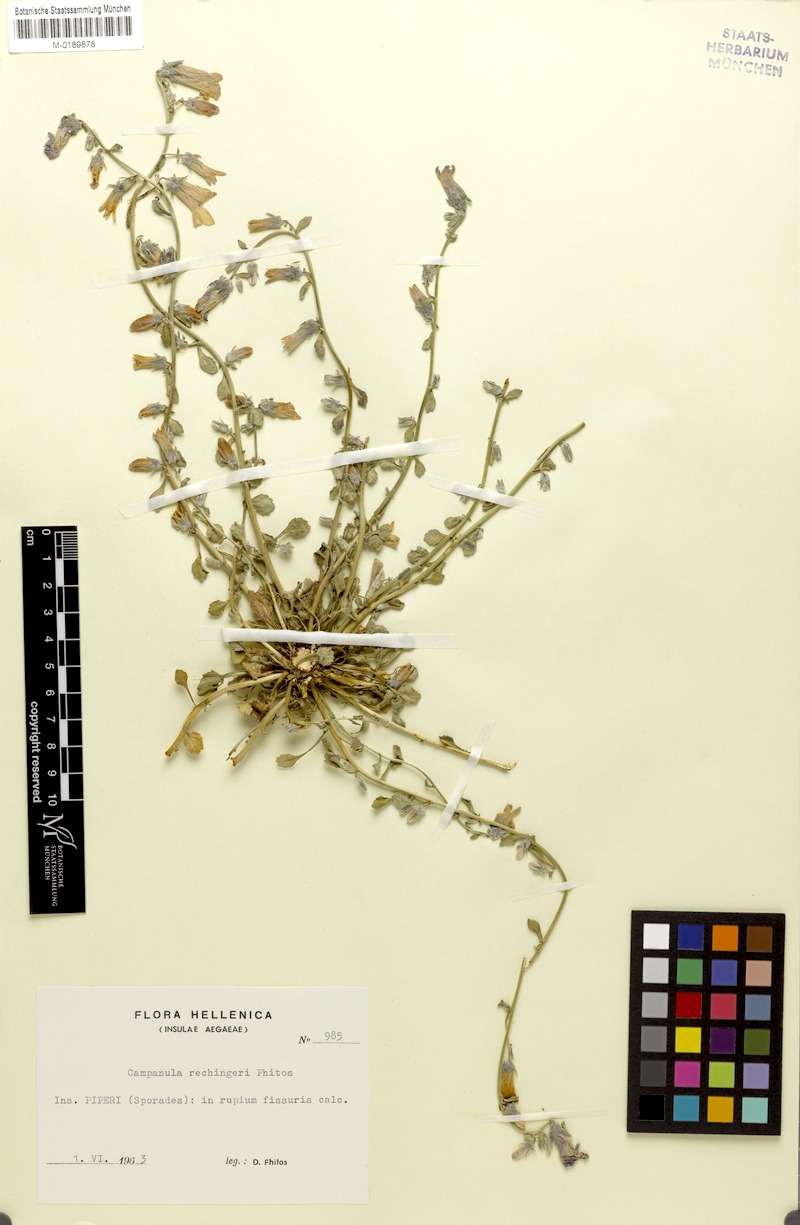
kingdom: Plantae
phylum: Tracheophyta
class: Magnoliopsida
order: Asterales
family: Campanulaceae
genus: Campanula
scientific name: Campanula rechingeri
